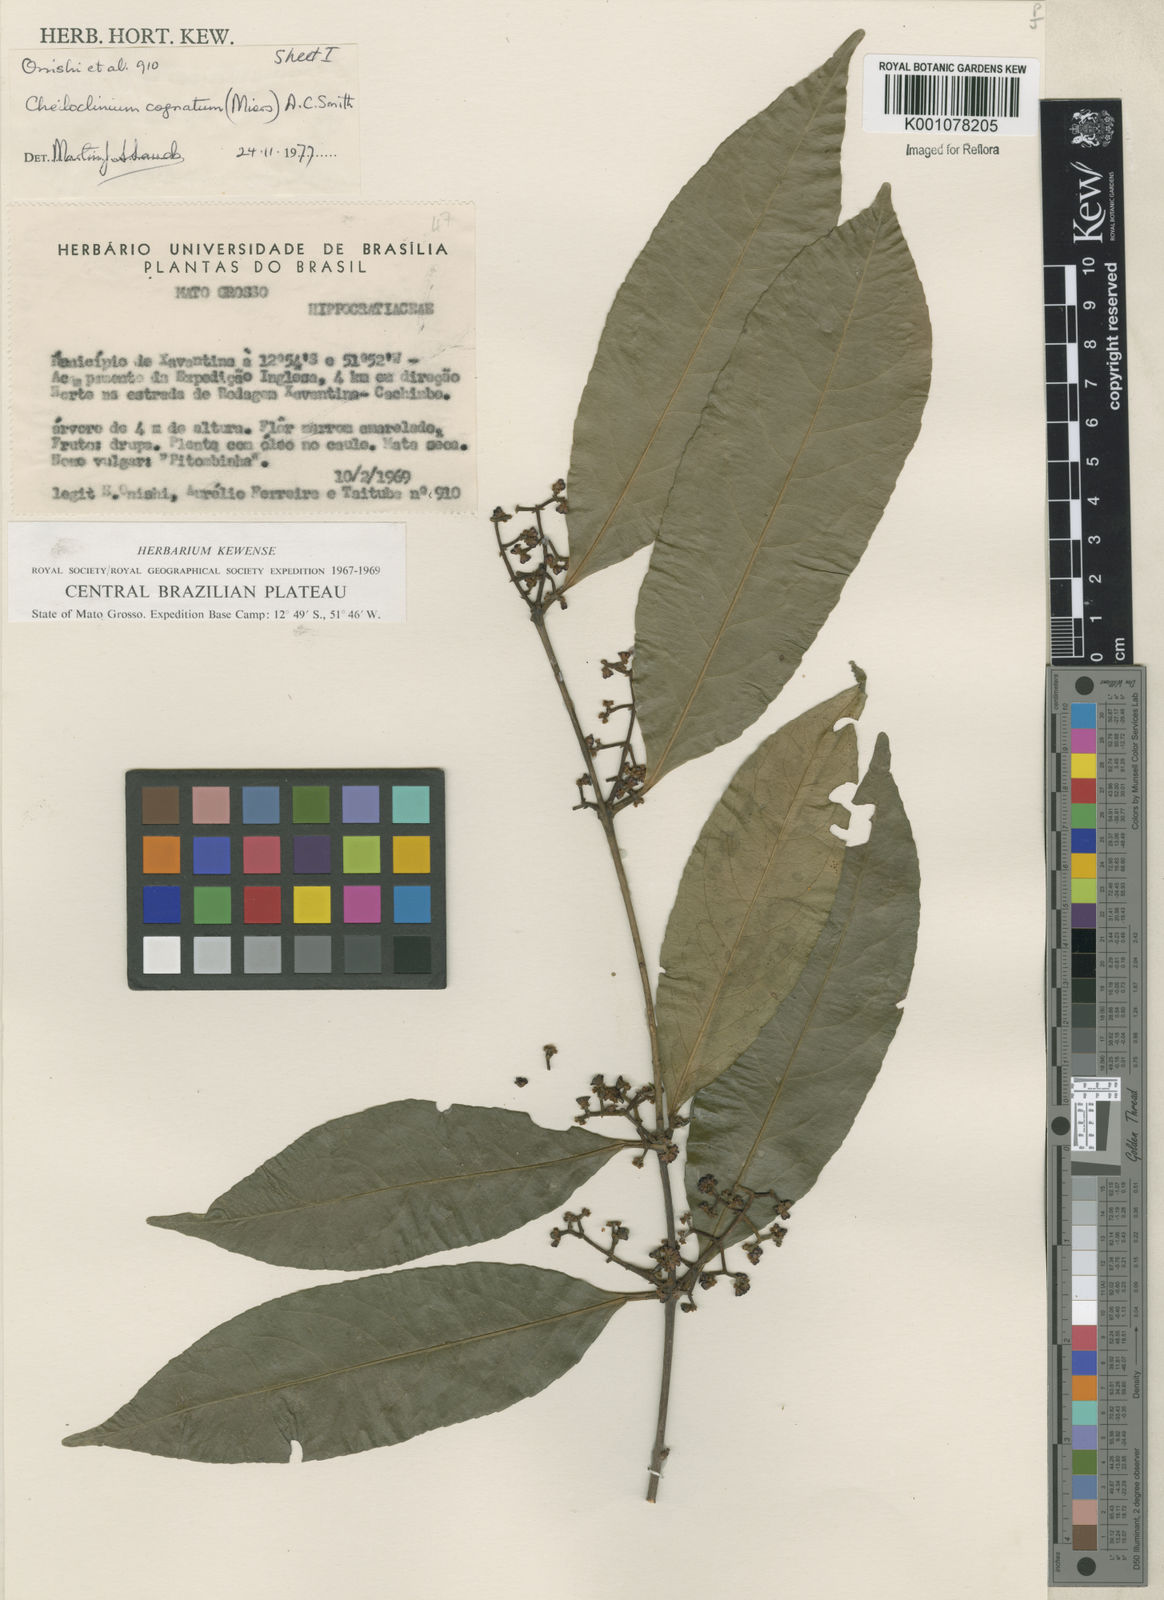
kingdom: Plantae
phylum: Tracheophyta
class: Magnoliopsida
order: Celastrales
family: Celastraceae
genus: Cheiloclinium
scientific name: Cheiloclinium cognatum
